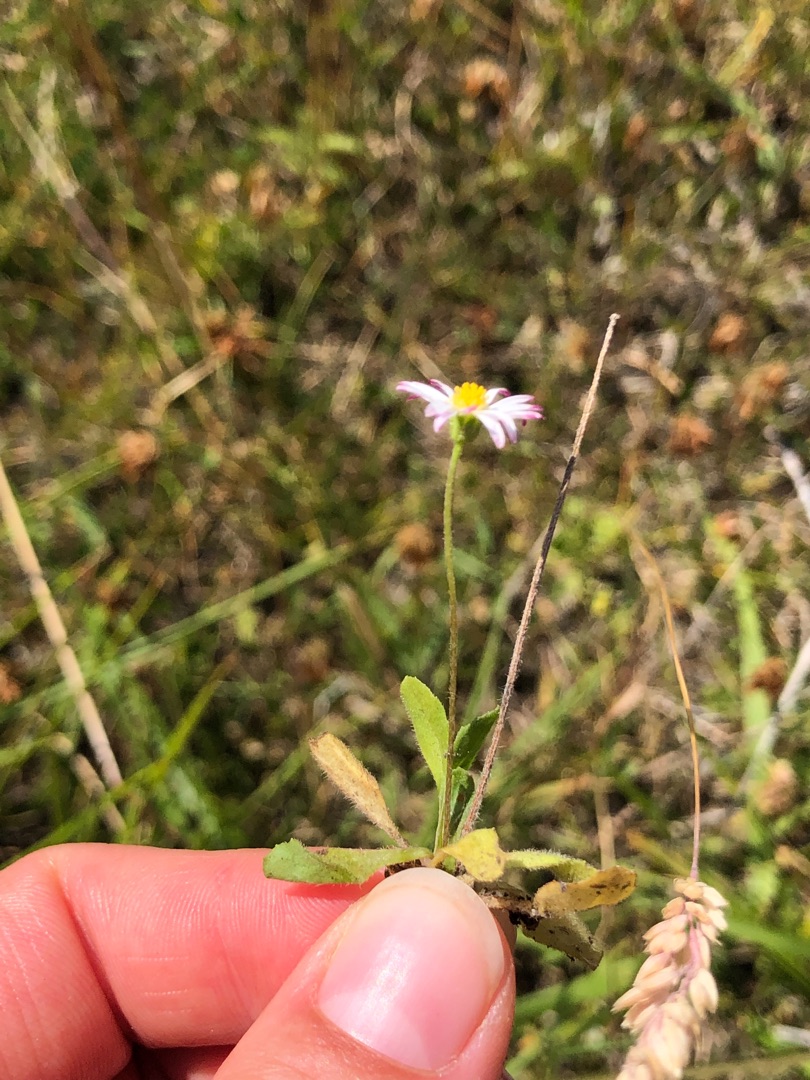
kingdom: Plantae
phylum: Tracheophyta
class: Magnoliopsida
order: Asterales
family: Asteraceae
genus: Bellis
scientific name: Bellis perennis
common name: Tusindfryd
